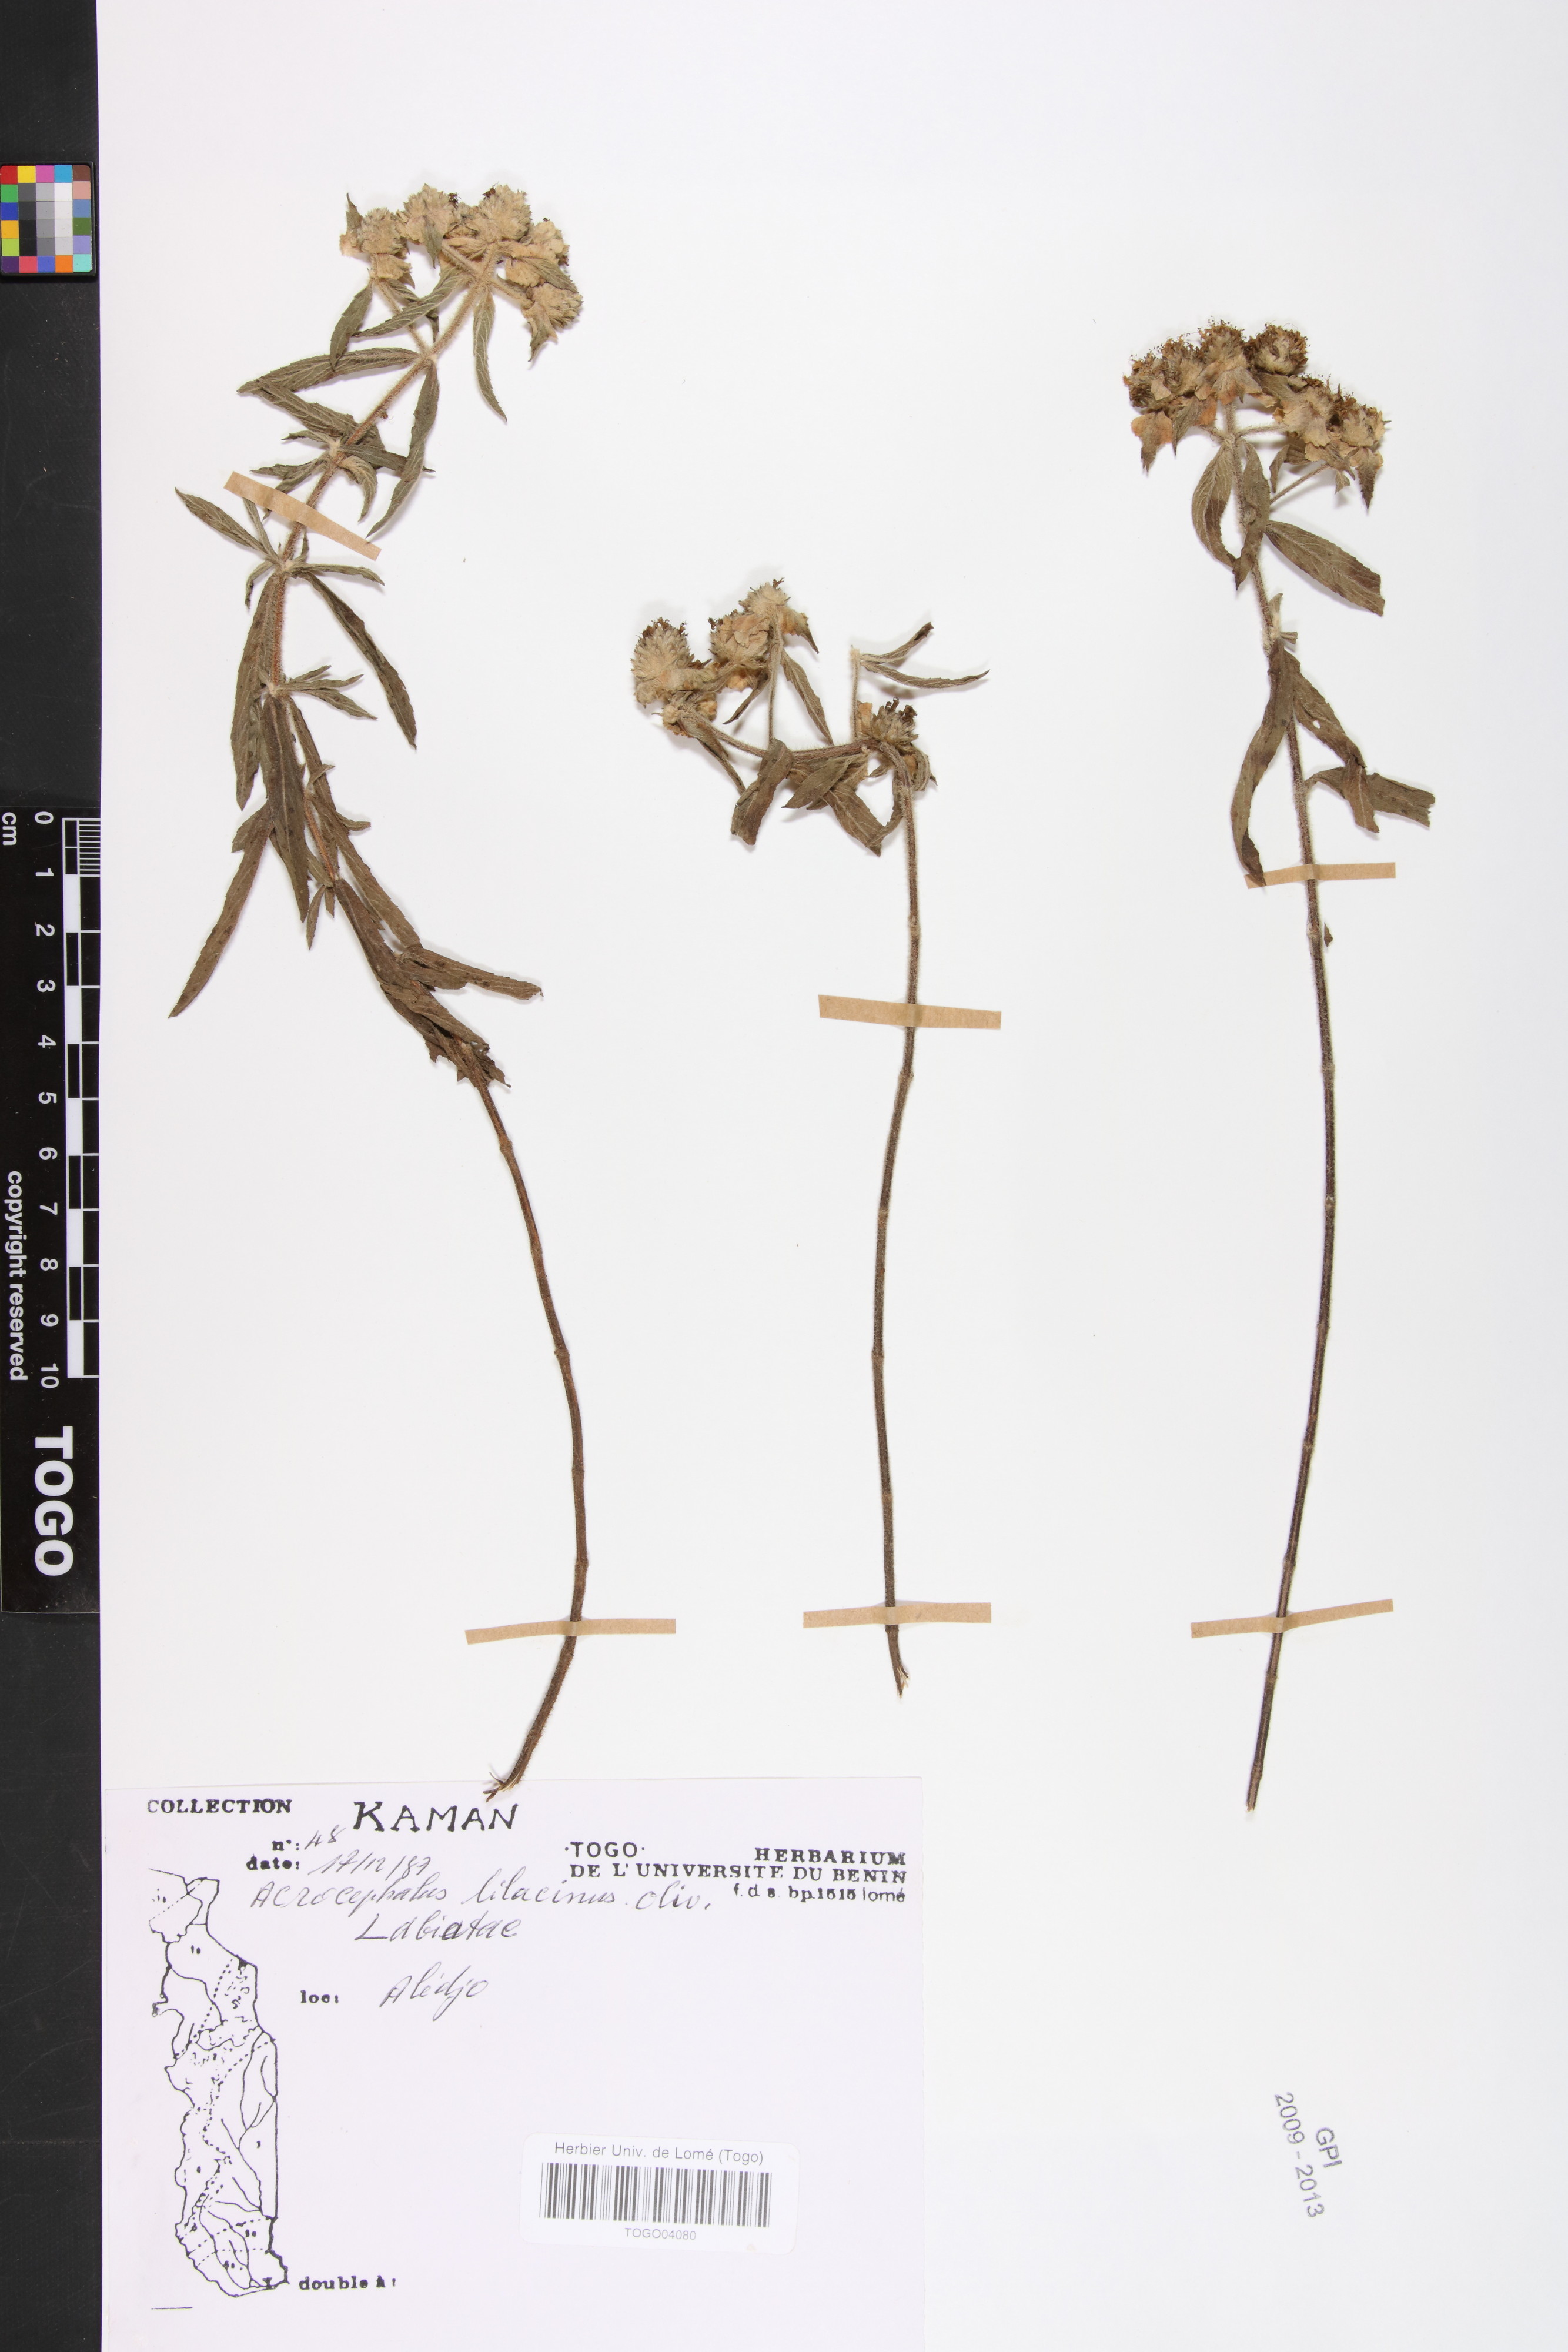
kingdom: Plantae
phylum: Tracheophyta
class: Magnoliopsida
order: Lamiales
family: Lamiaceae
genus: Haumaniastrum
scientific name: Haumaniastrum caeruleum
